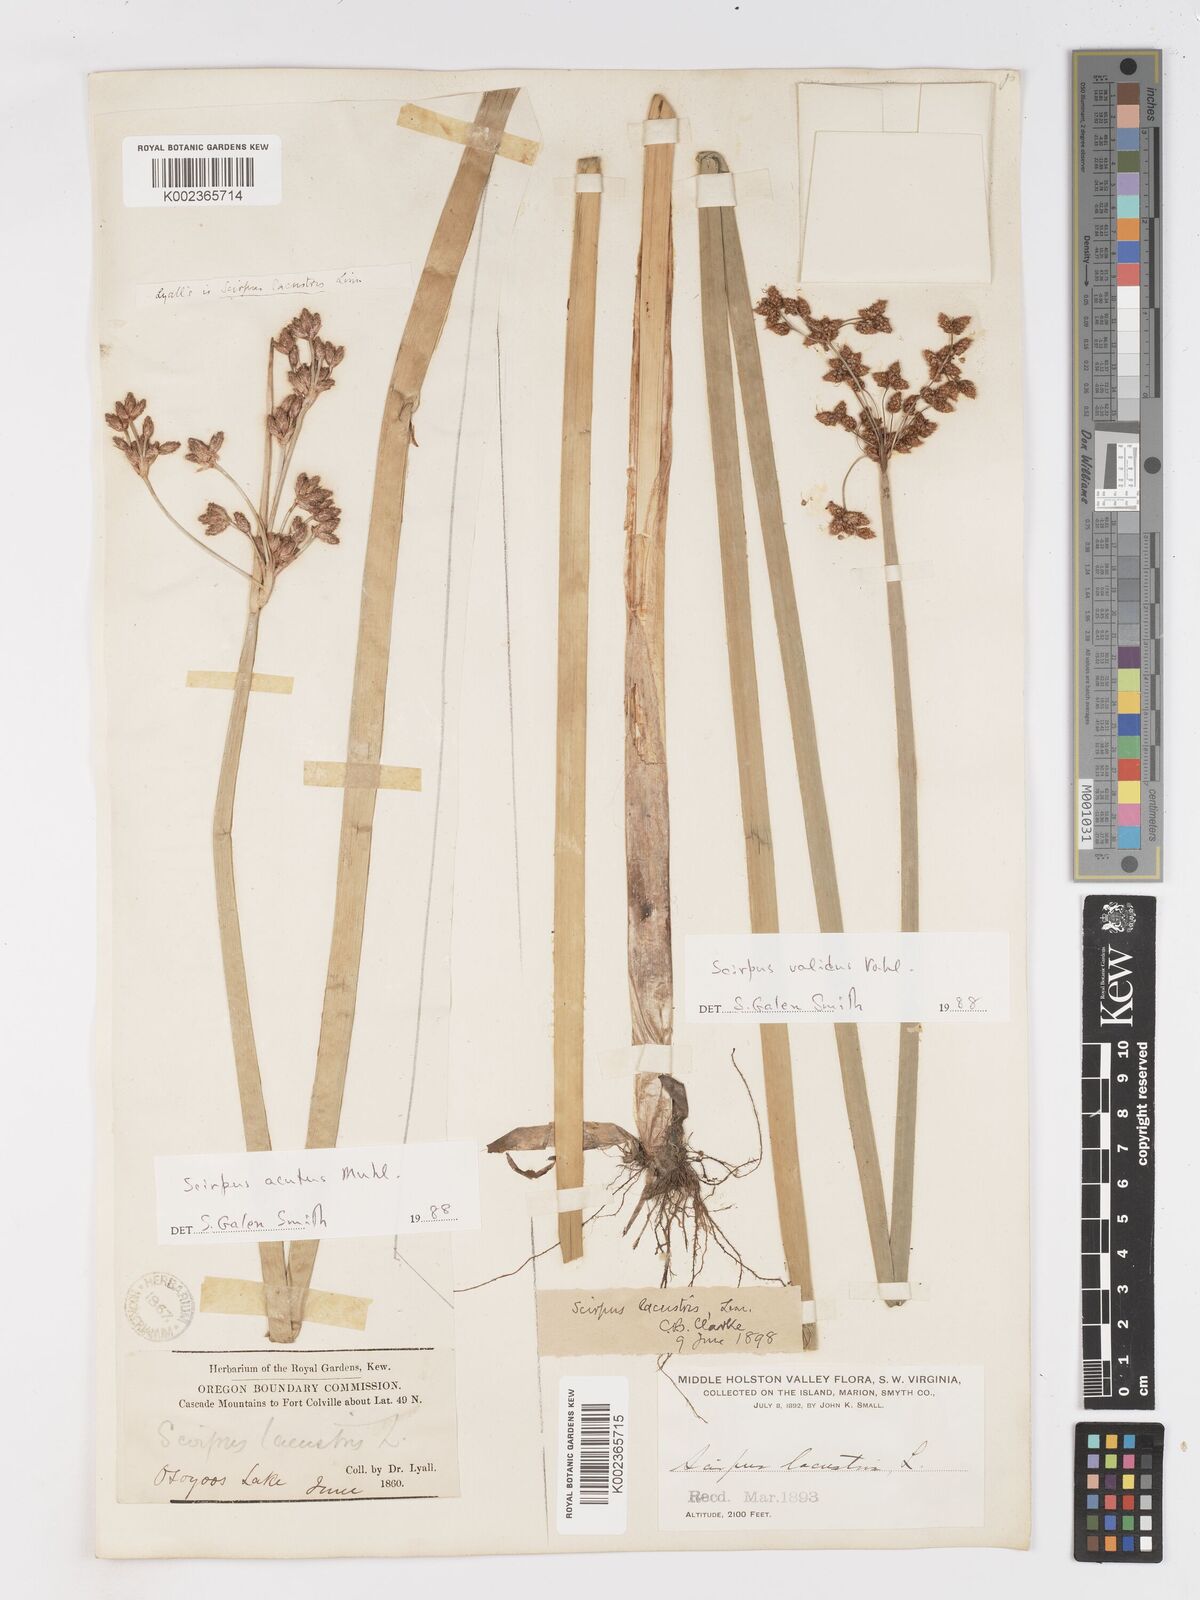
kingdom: Plantae
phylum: Tracheophyta
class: Liliopsida
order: Poales
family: Cyperaceae
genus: Schoenoplectus
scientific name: Schoenoplectus acutus
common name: Hardstem bulrush
